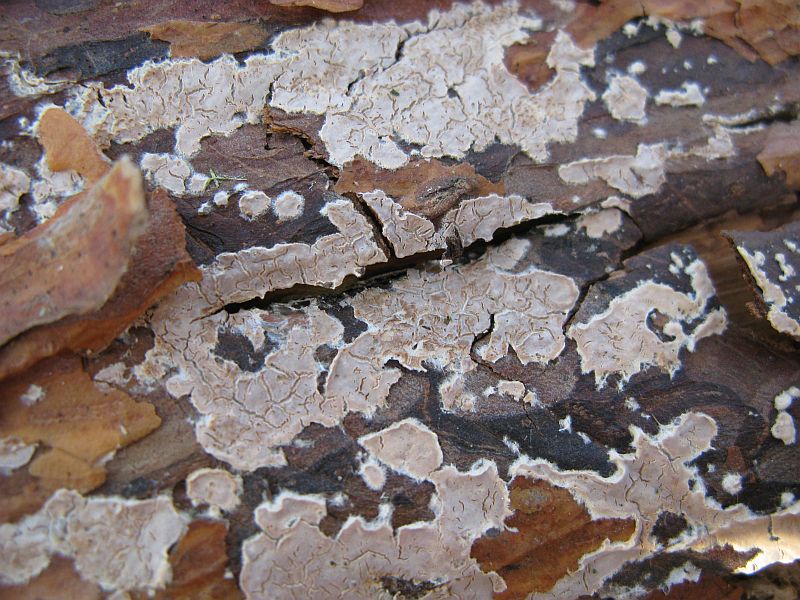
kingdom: Fungi
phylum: Basidiomycota
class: Agaricomycetes
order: Agaricales
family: Physalacriaceae
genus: Cylindrobasidium
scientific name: Cylindrobasidium evolvens
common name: sprækkehinde
